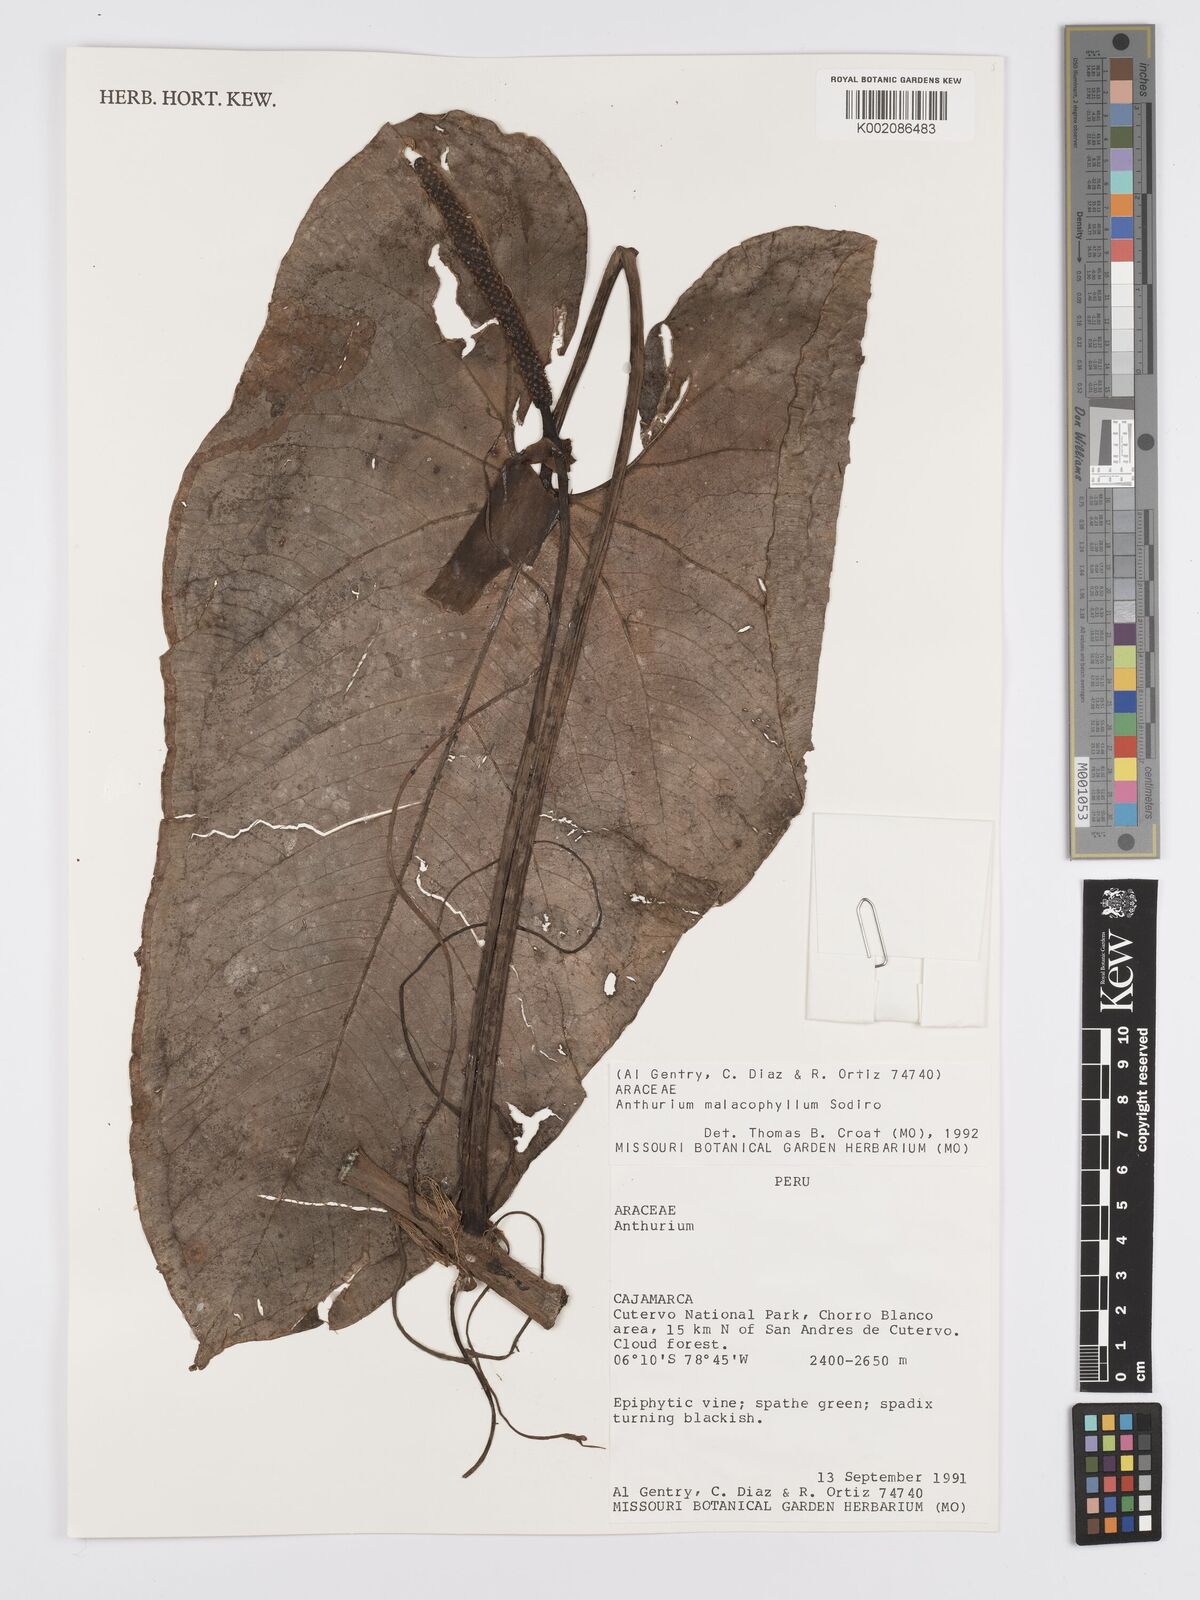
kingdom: Plantae
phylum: Tracheophyta
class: Liliopsida
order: Alismatales
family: Araceae
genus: Anthurium
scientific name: Anthurium nigrescens
